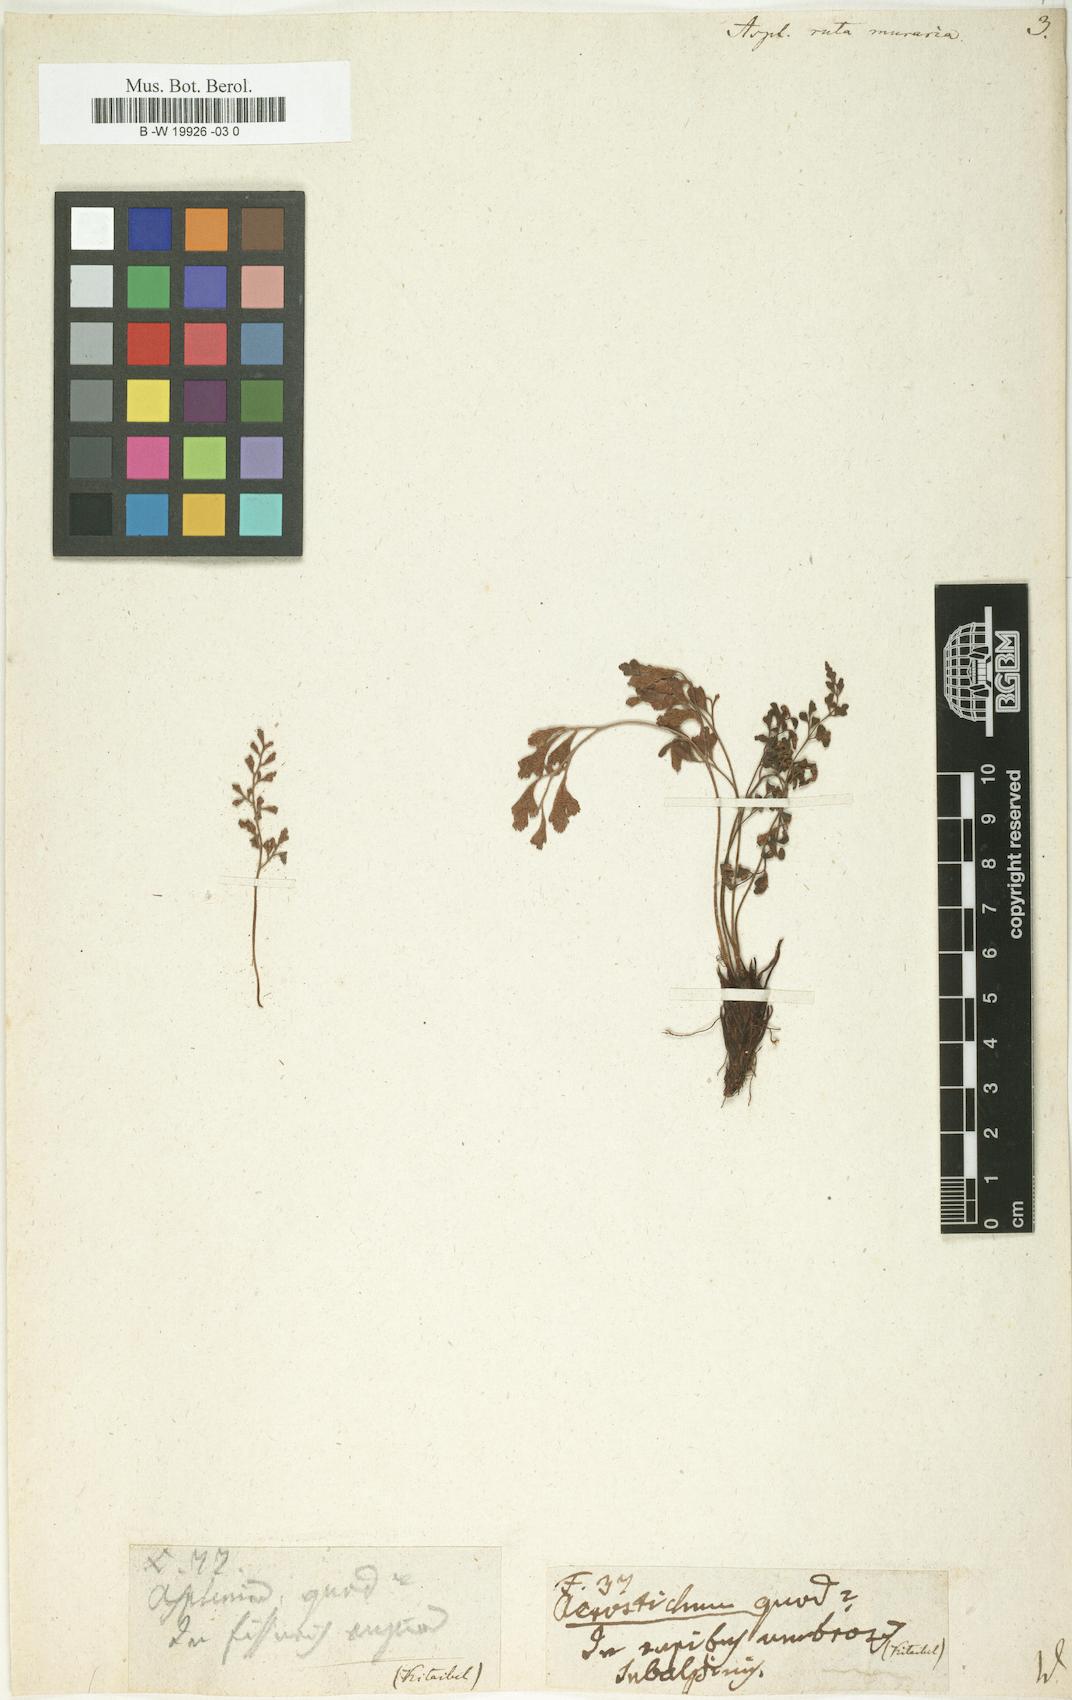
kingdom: Plantae
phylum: Tracheophyta
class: Polypodiopsida
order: Polypodiales
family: Aspleniaceae
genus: Asplenium
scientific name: Asplenium ruta-muraria
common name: Wall-rue
